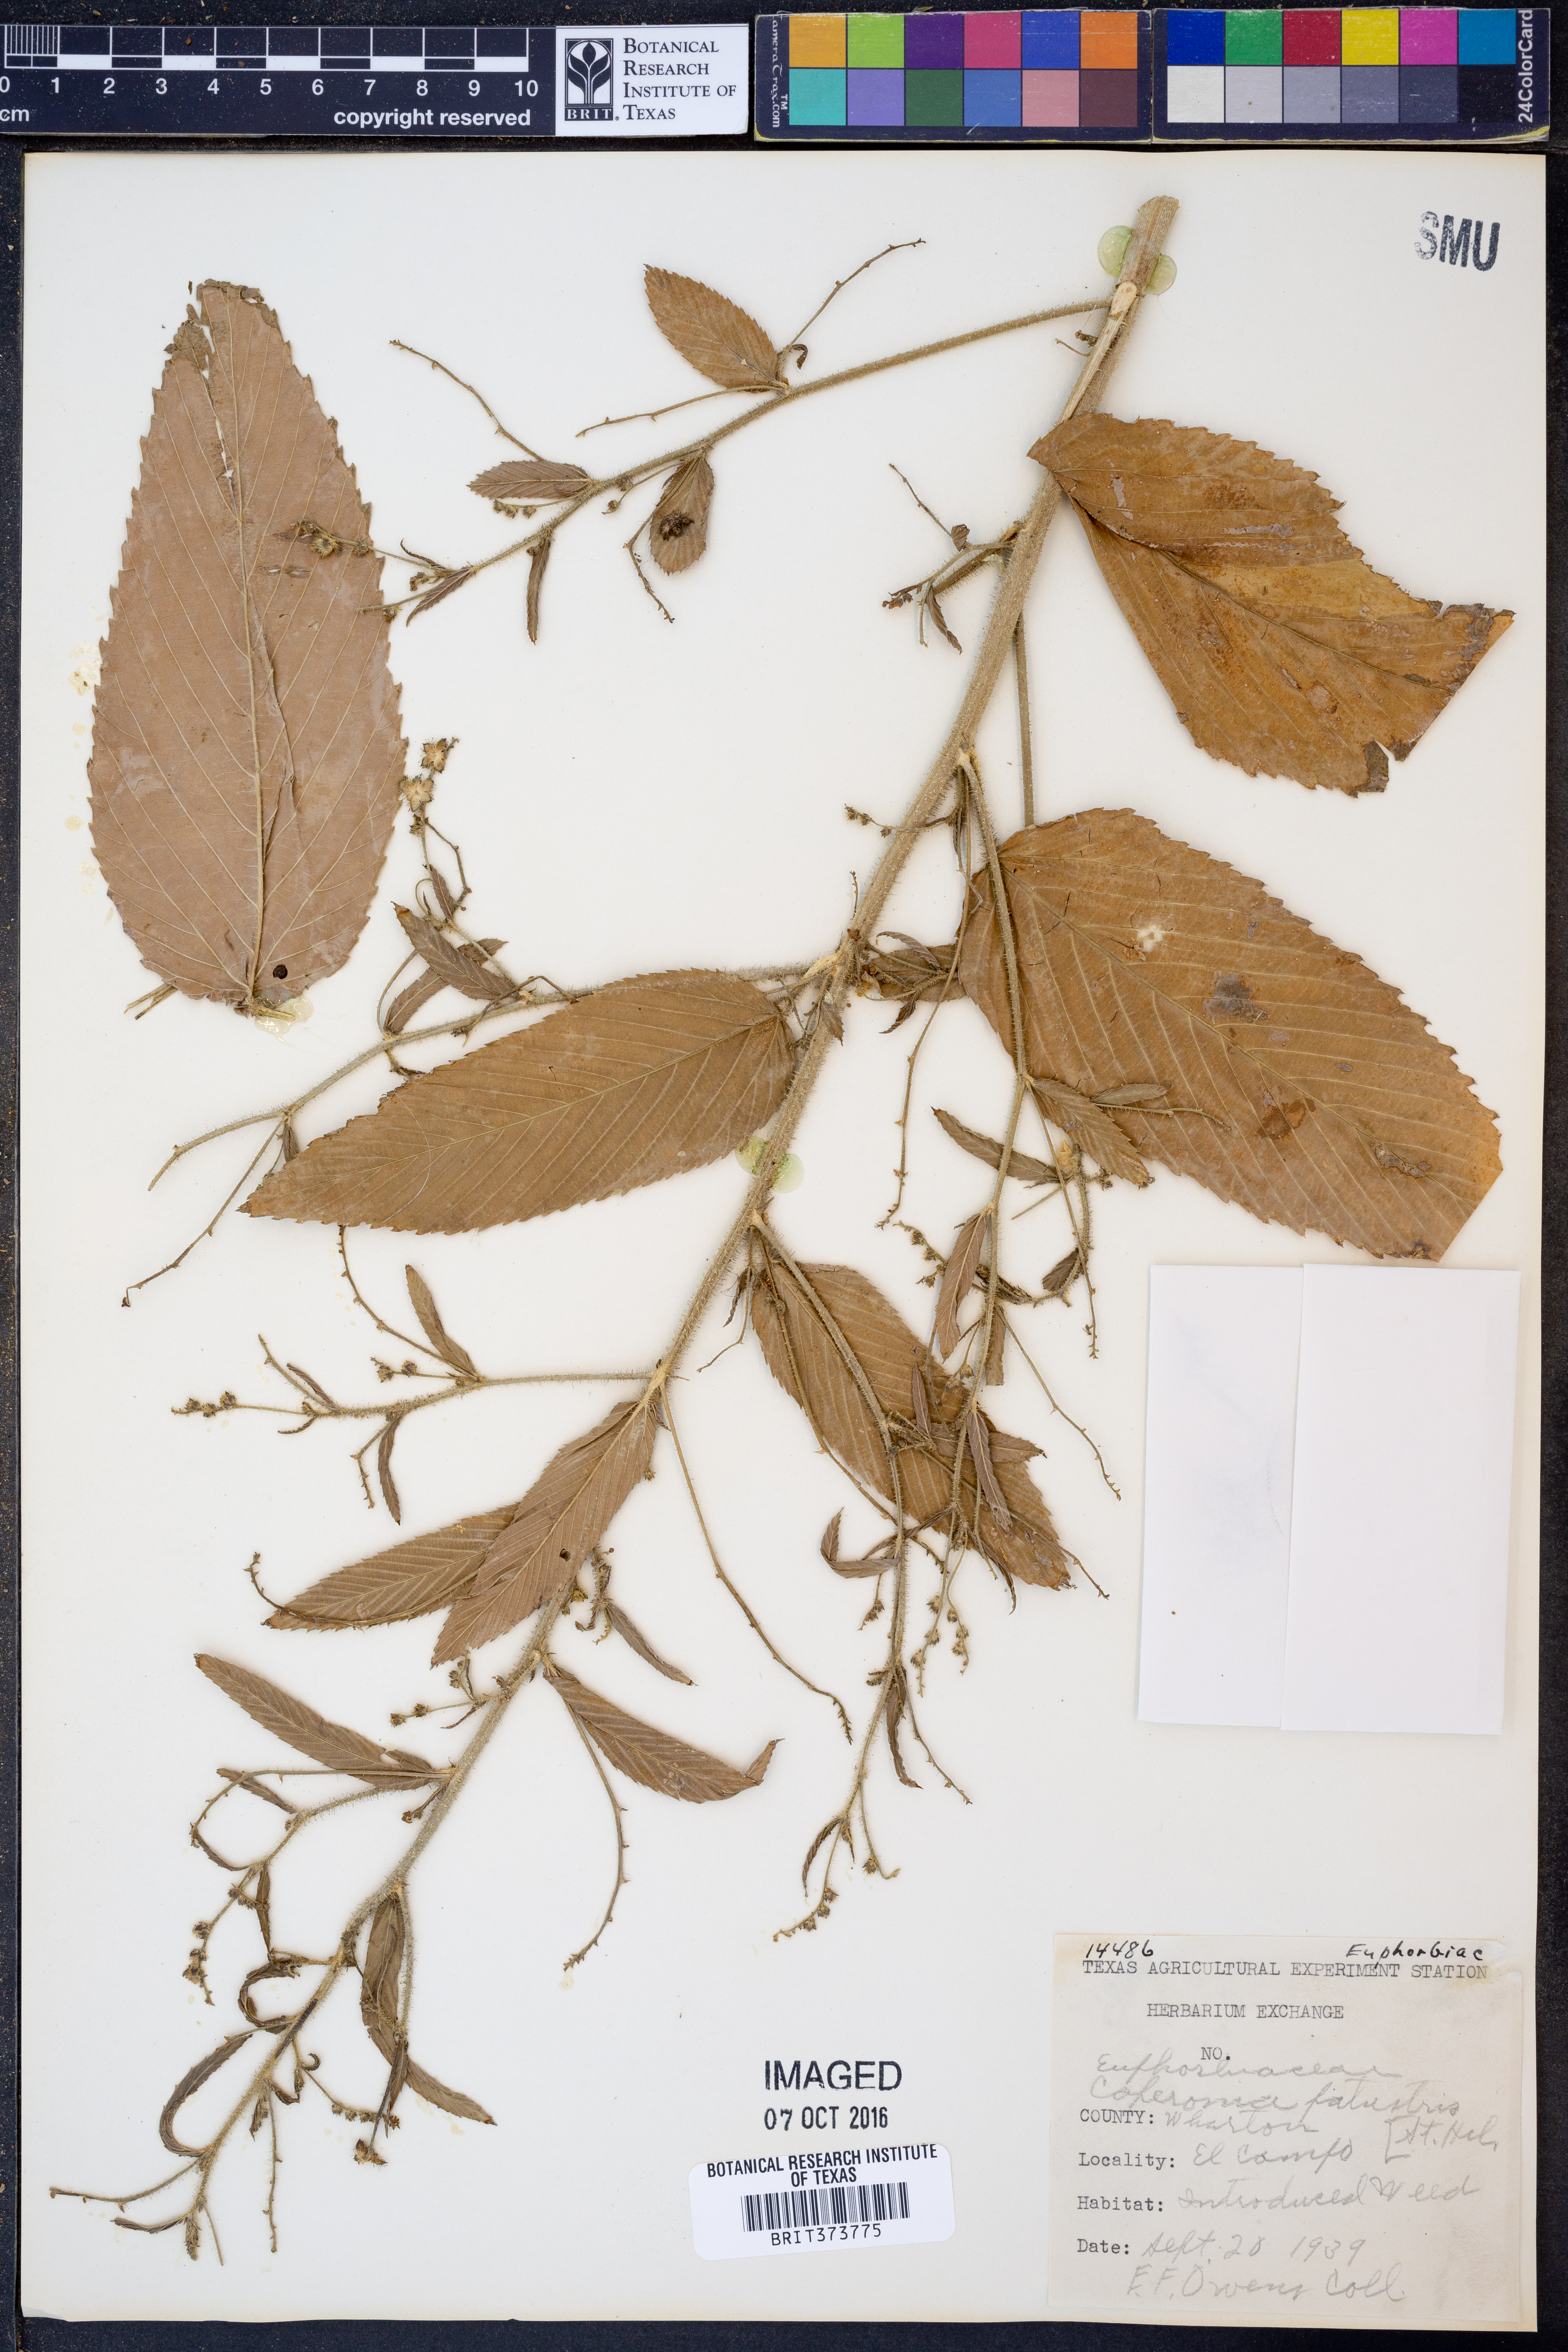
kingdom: Plantae
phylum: Tracheophyta
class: Magnoliopsida
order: Malpighiales
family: Euphorbiaceae
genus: Caperonia
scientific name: Caperonia palustris
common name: Sacatrapo
